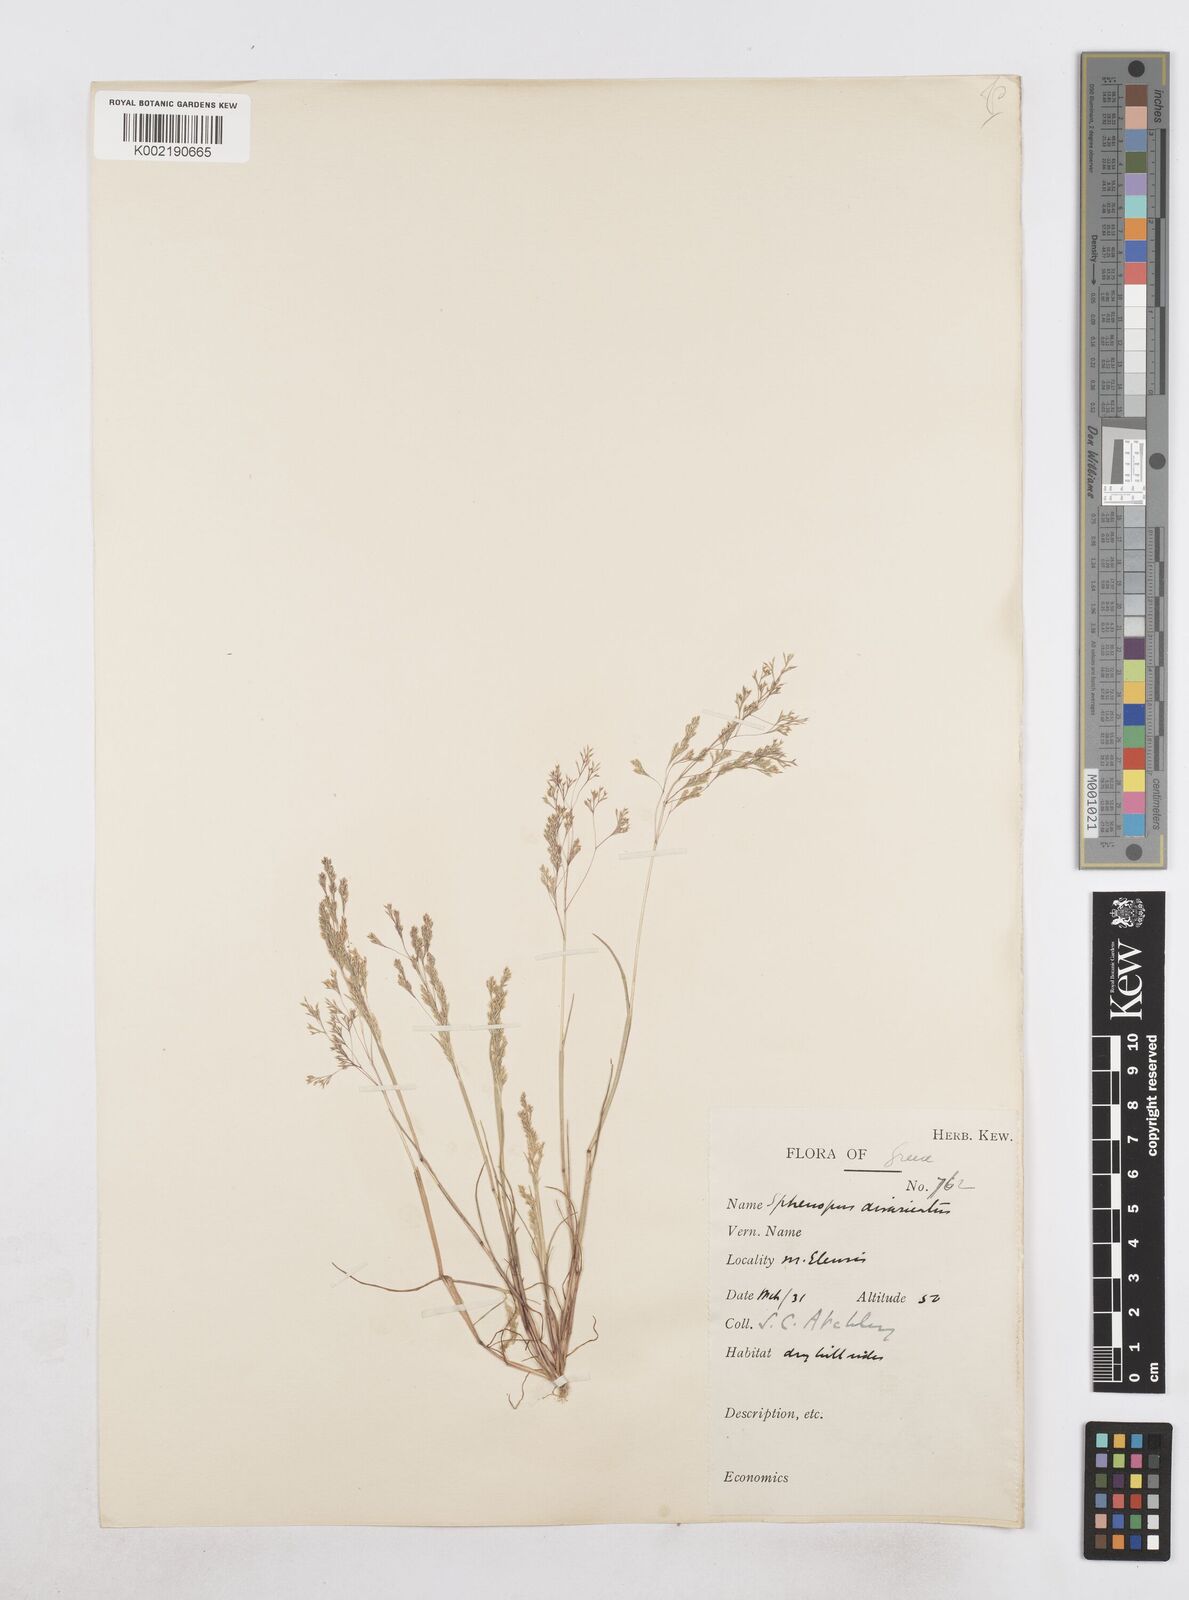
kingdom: Plantae
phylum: Tracheophyta
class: Liliopsida
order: Poales
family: Poaceae
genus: Sphenopus
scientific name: Sphenopus divaricatus
